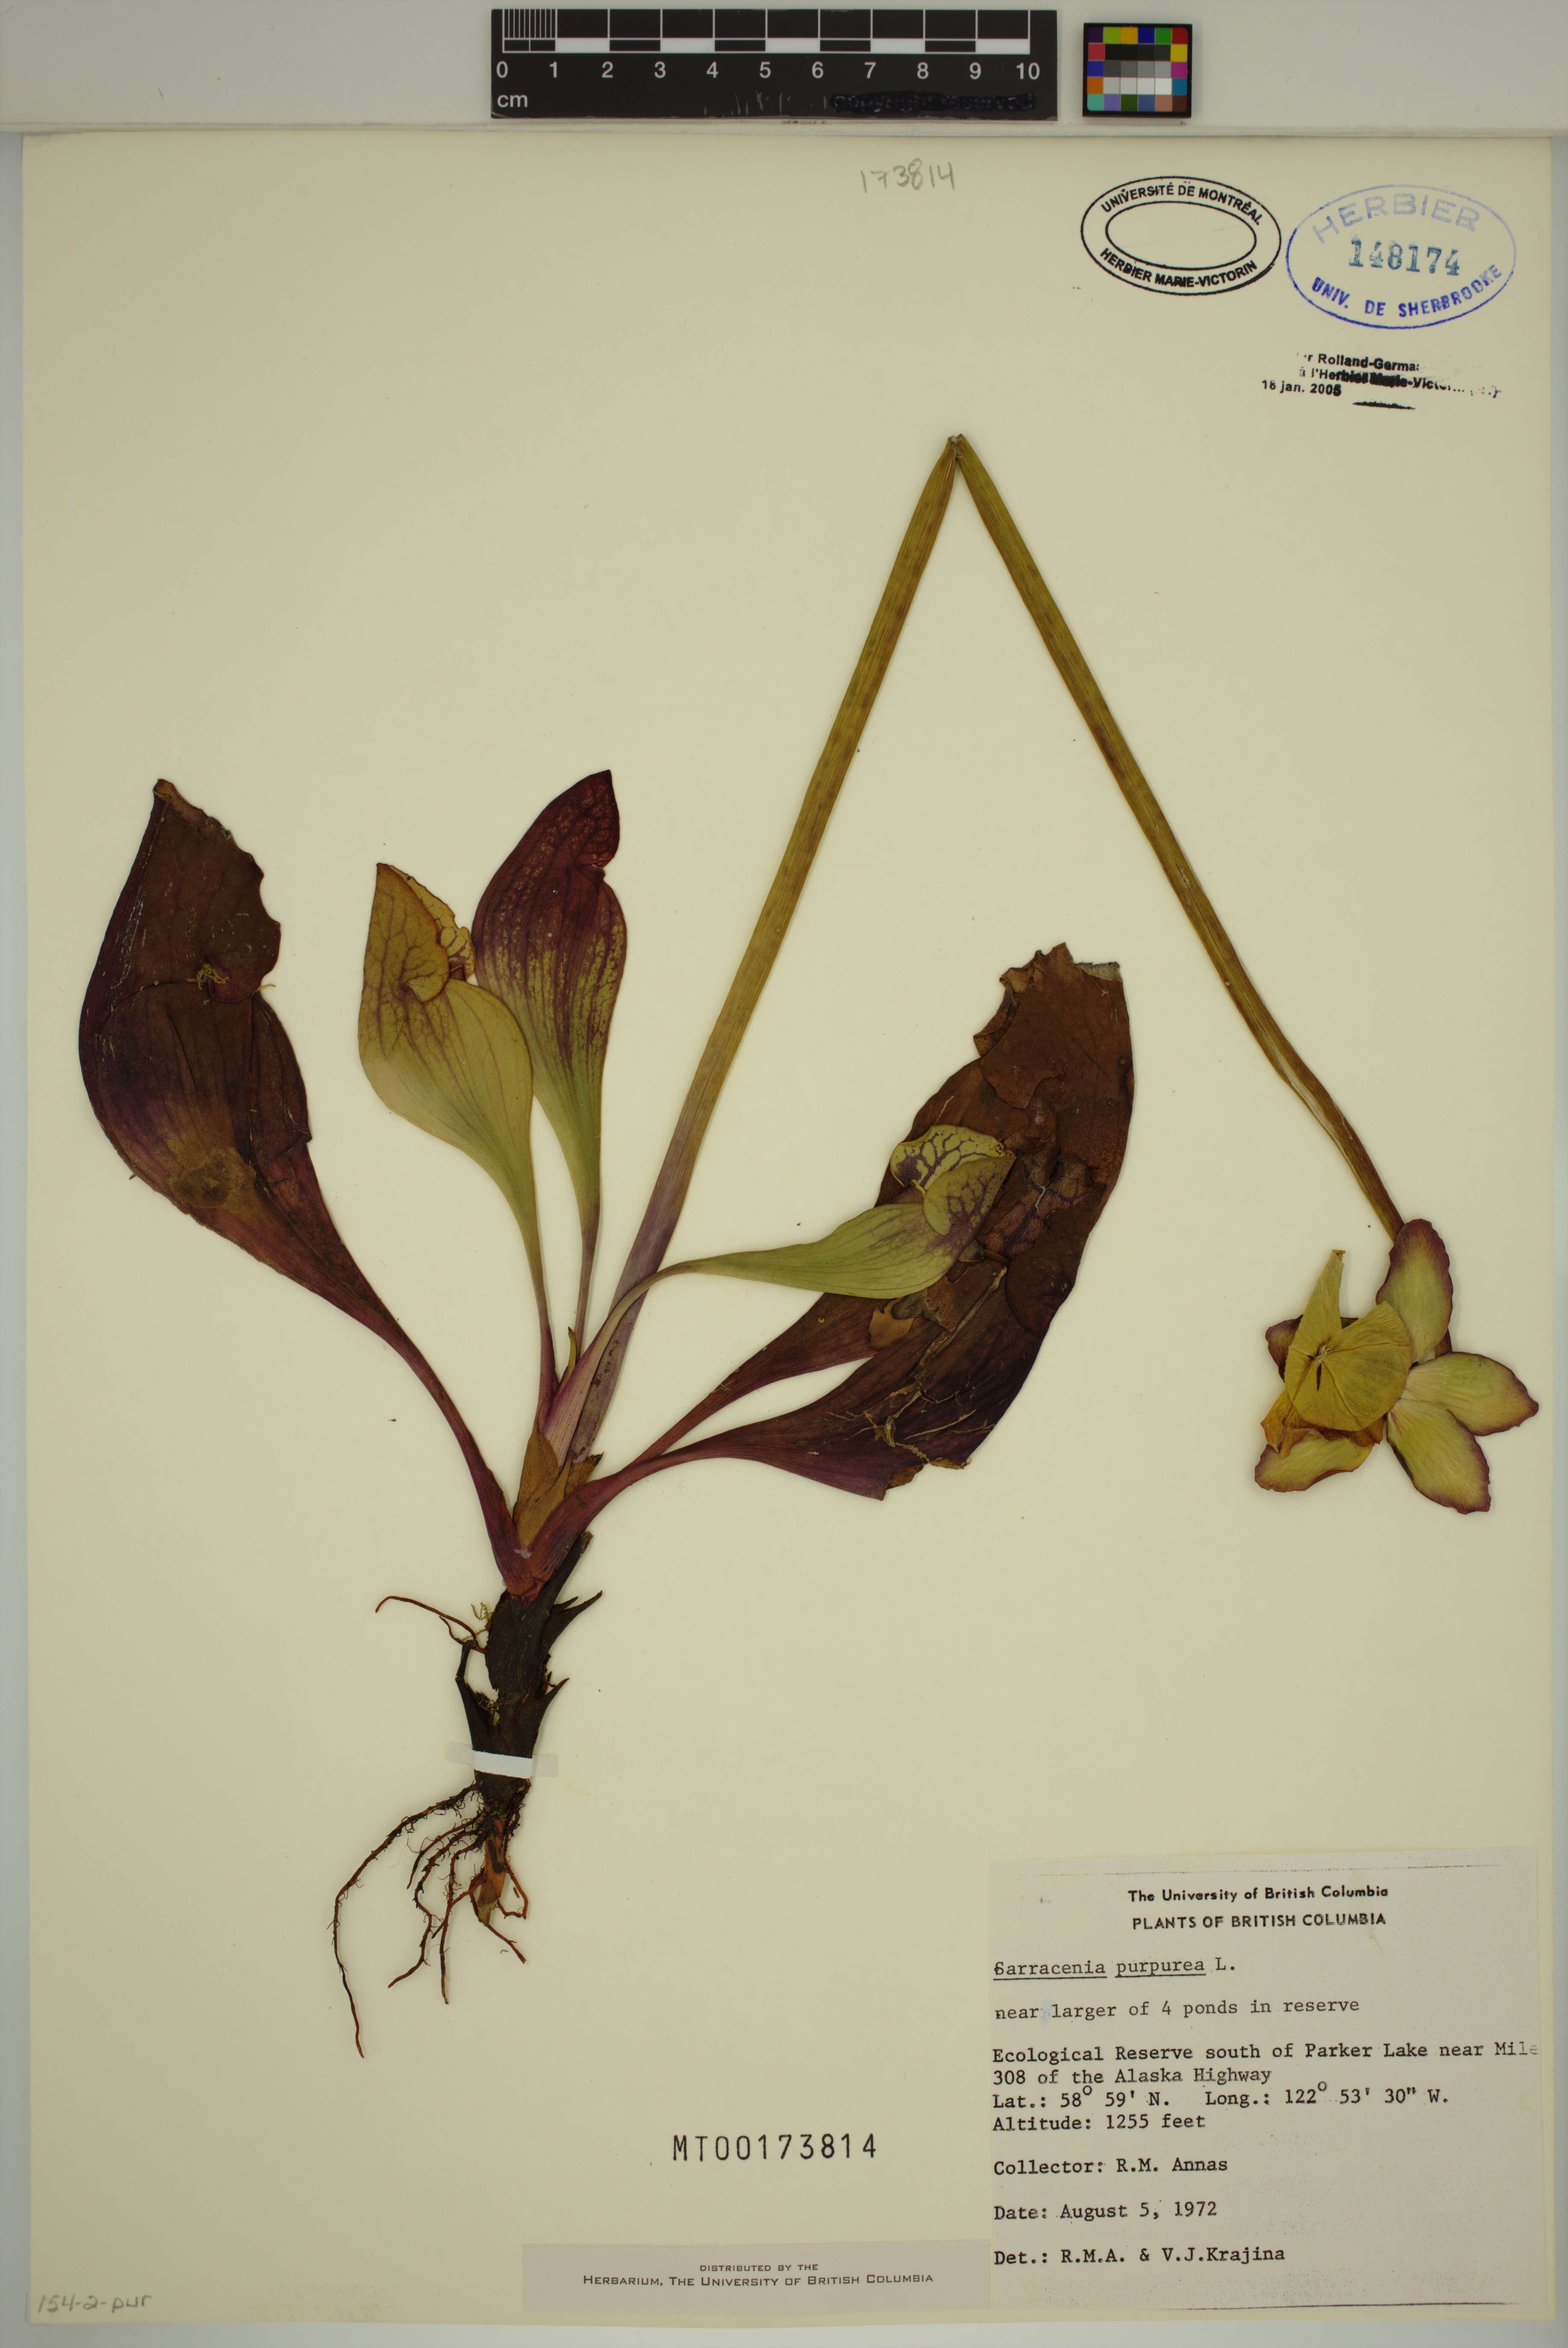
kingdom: Plantae
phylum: Tracheophyta
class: Magnoliopsida
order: Ericales
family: Sarraceniaceae
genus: Sarracenia
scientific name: Sarracenia purpurea
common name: Pitcherplant
